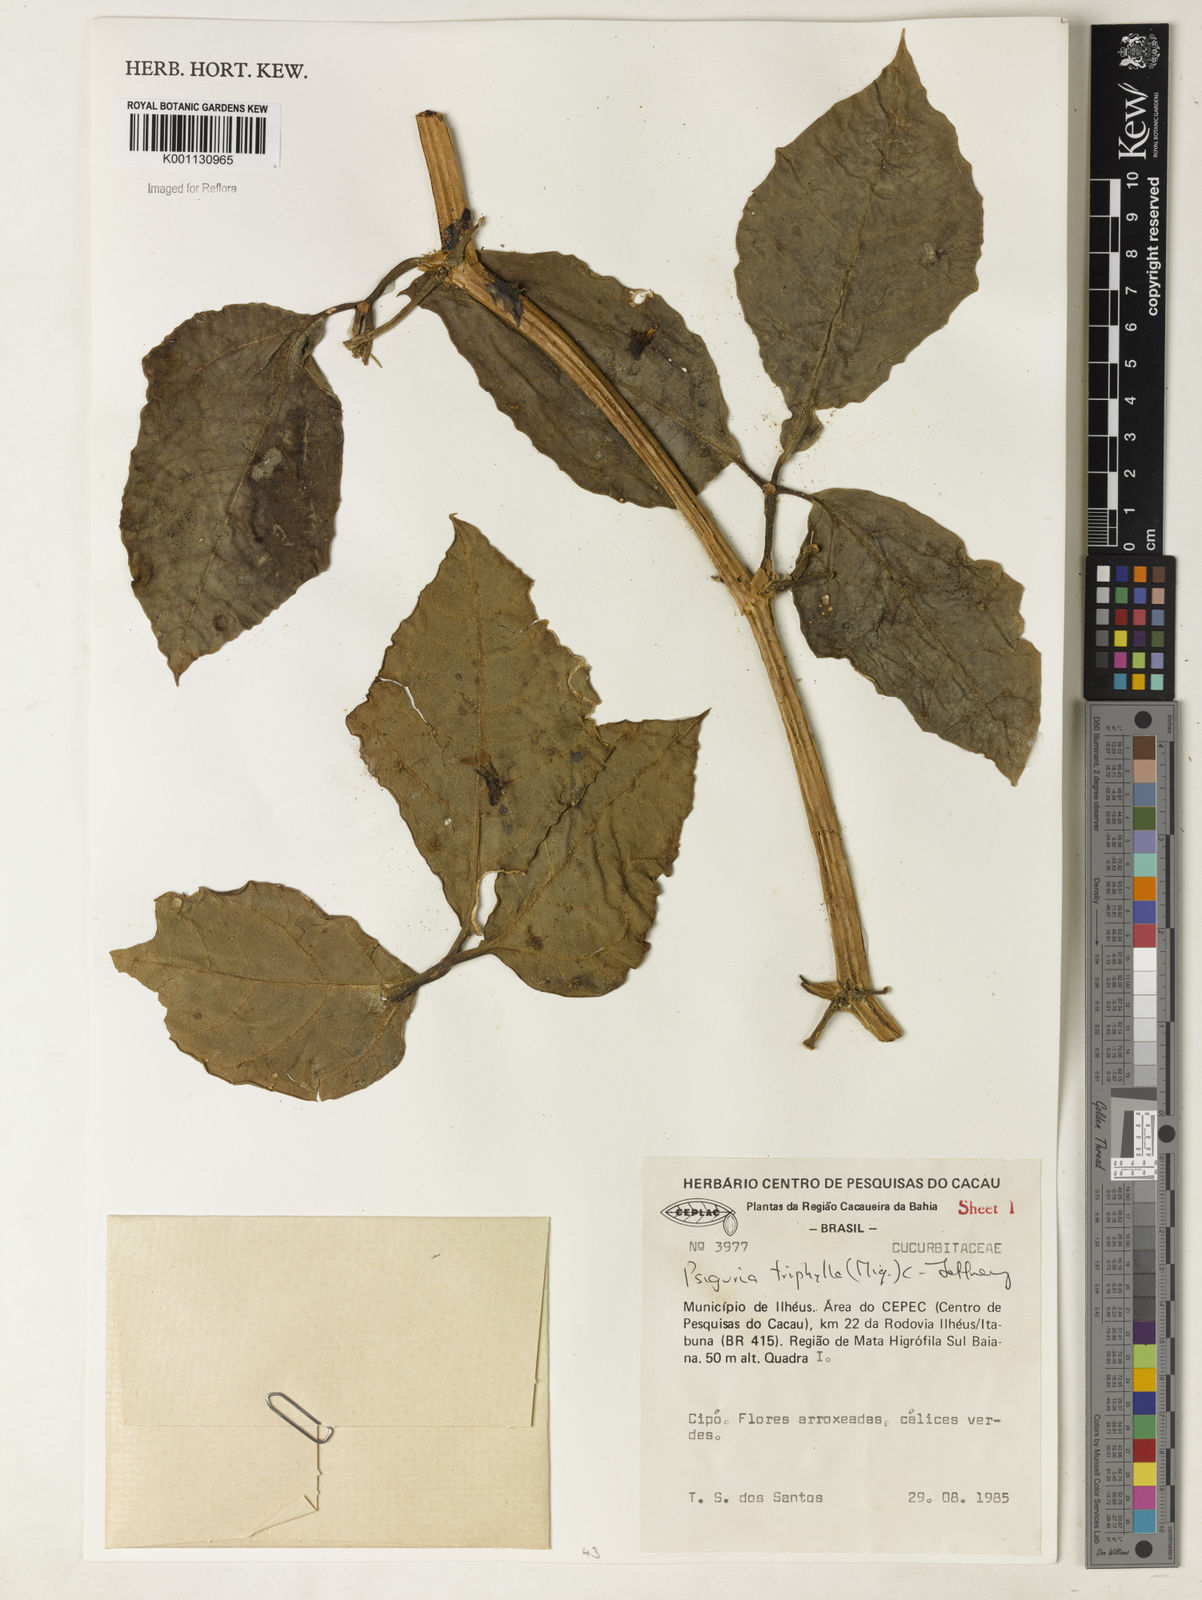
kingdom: Plantae
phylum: Tracheophyta
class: Magnoliopsida
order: Cucurbitales
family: Cucurbitaceae
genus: Psiguria
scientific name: Psiguria triphylla
